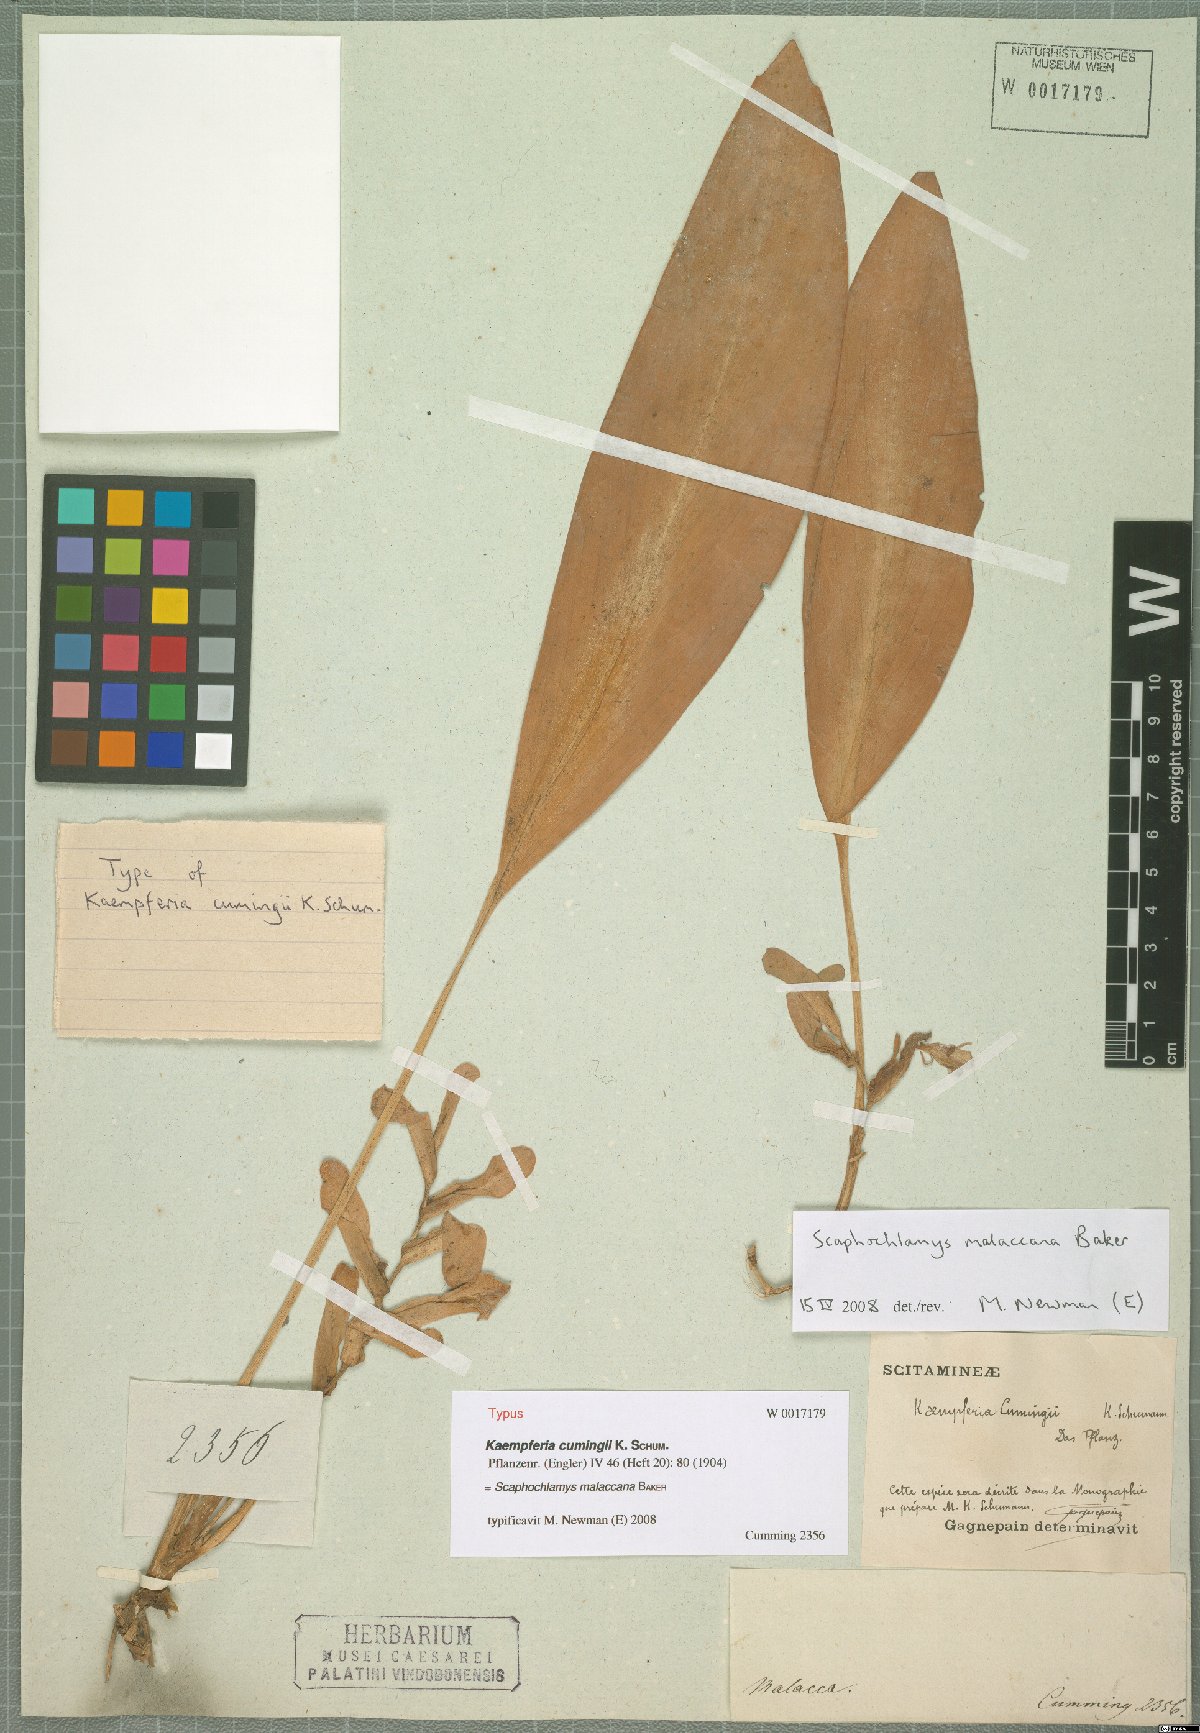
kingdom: Plantae
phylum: Tracheophyta
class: Liliopsida
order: Zingiberales
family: Zingiberaceae
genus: Scaphochlamys
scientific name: Scaphochlamys malaccana
